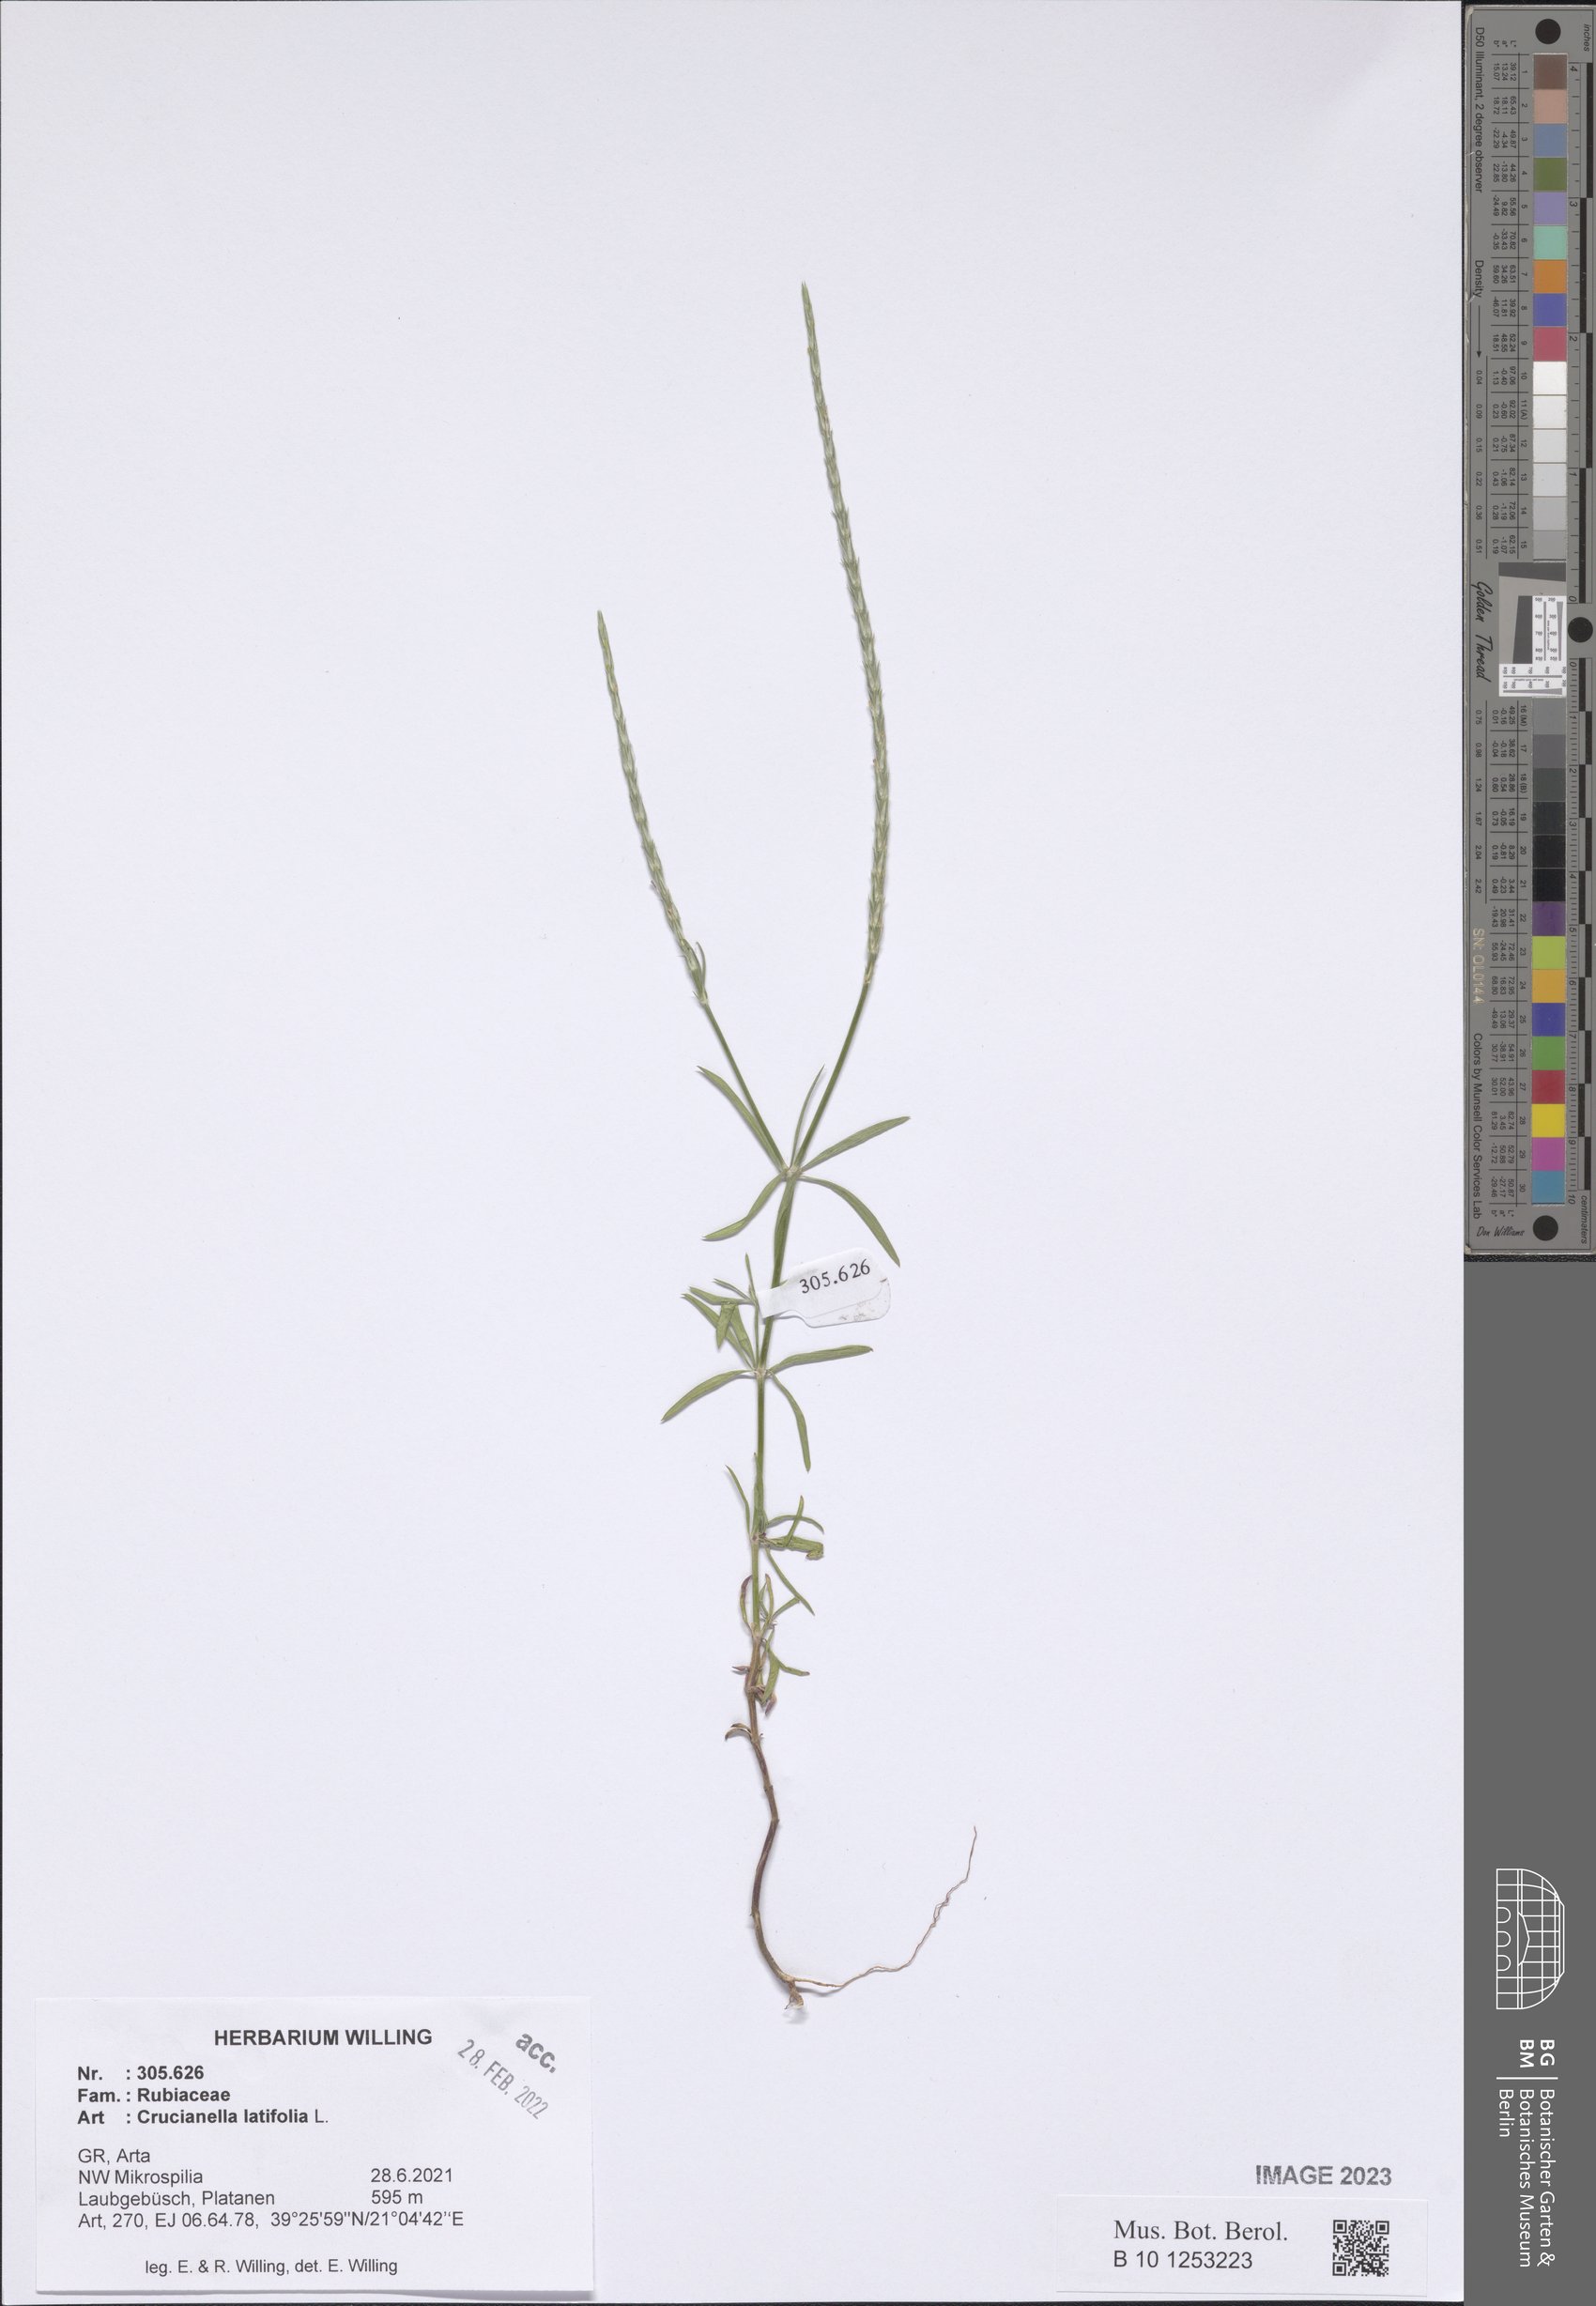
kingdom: Plantae
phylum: Tracheophyta
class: Magnoliopsida
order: Gentianales
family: Rubiaceae
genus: Crucianella
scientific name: Crucianella latifolia
